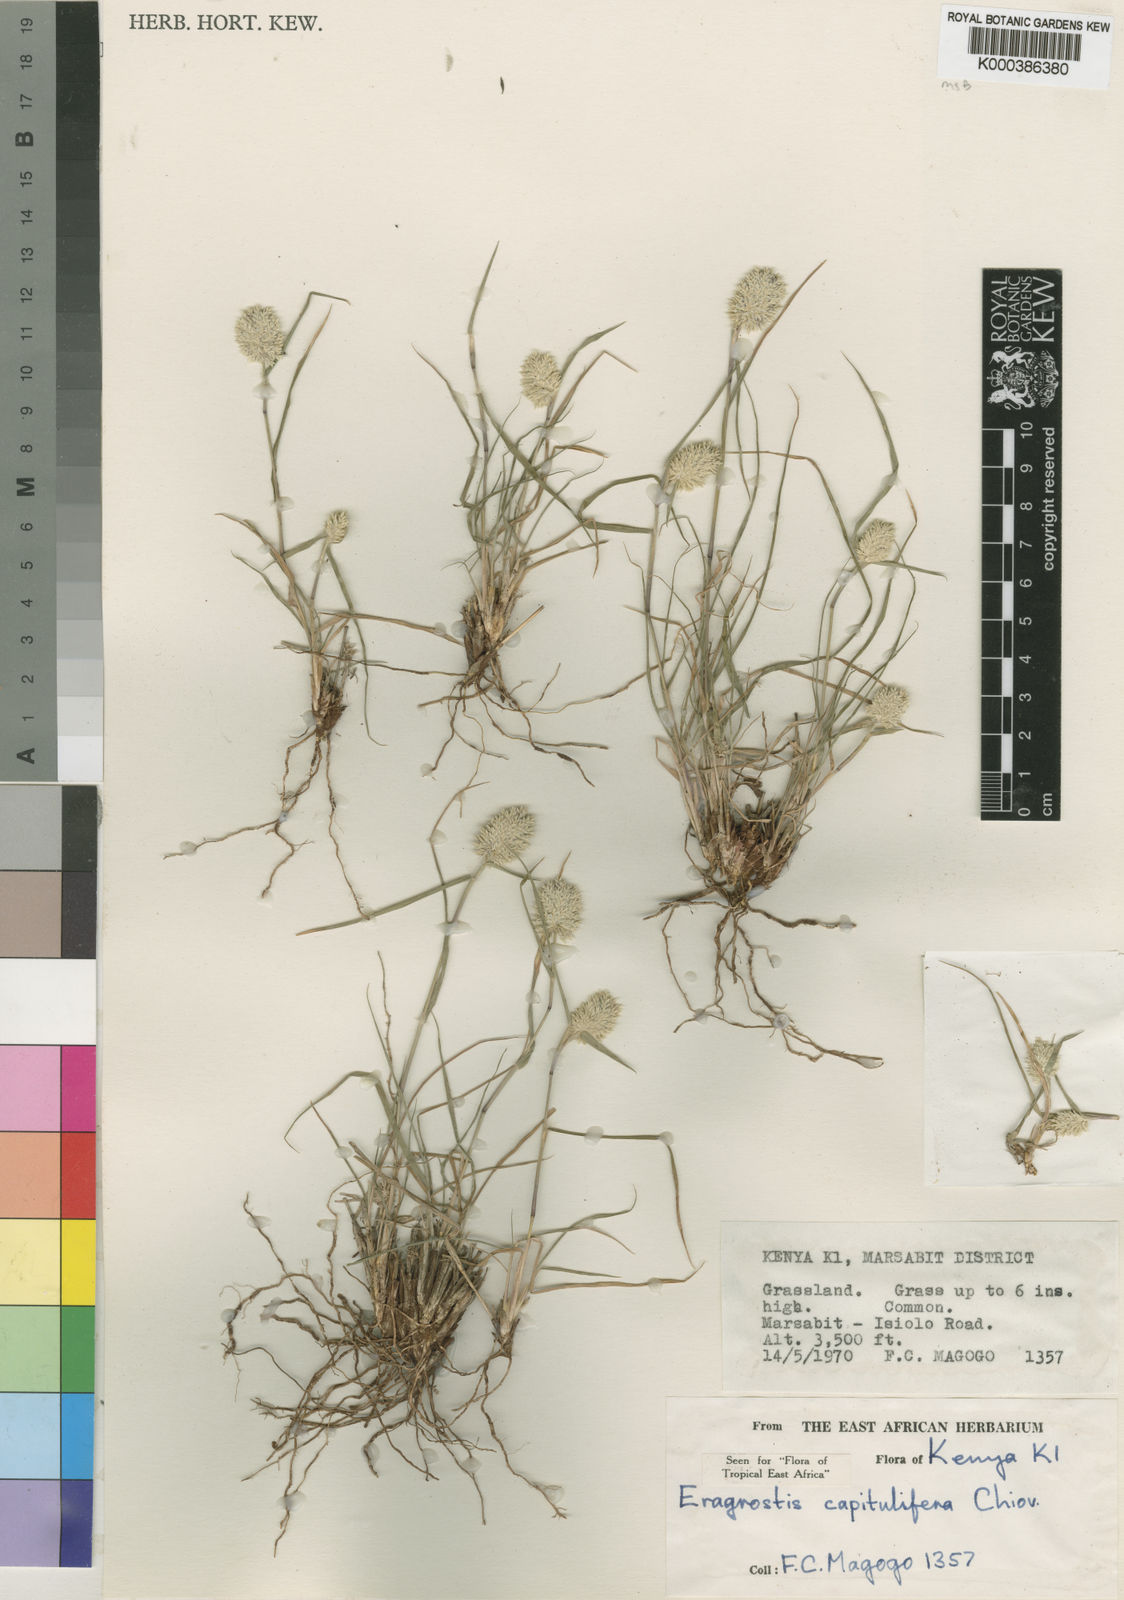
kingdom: Plantae
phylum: Tracheophyta
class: Liliopsida
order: Poales
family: Poaceae
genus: Eragrostis
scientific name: Eragrostis capitulifera
